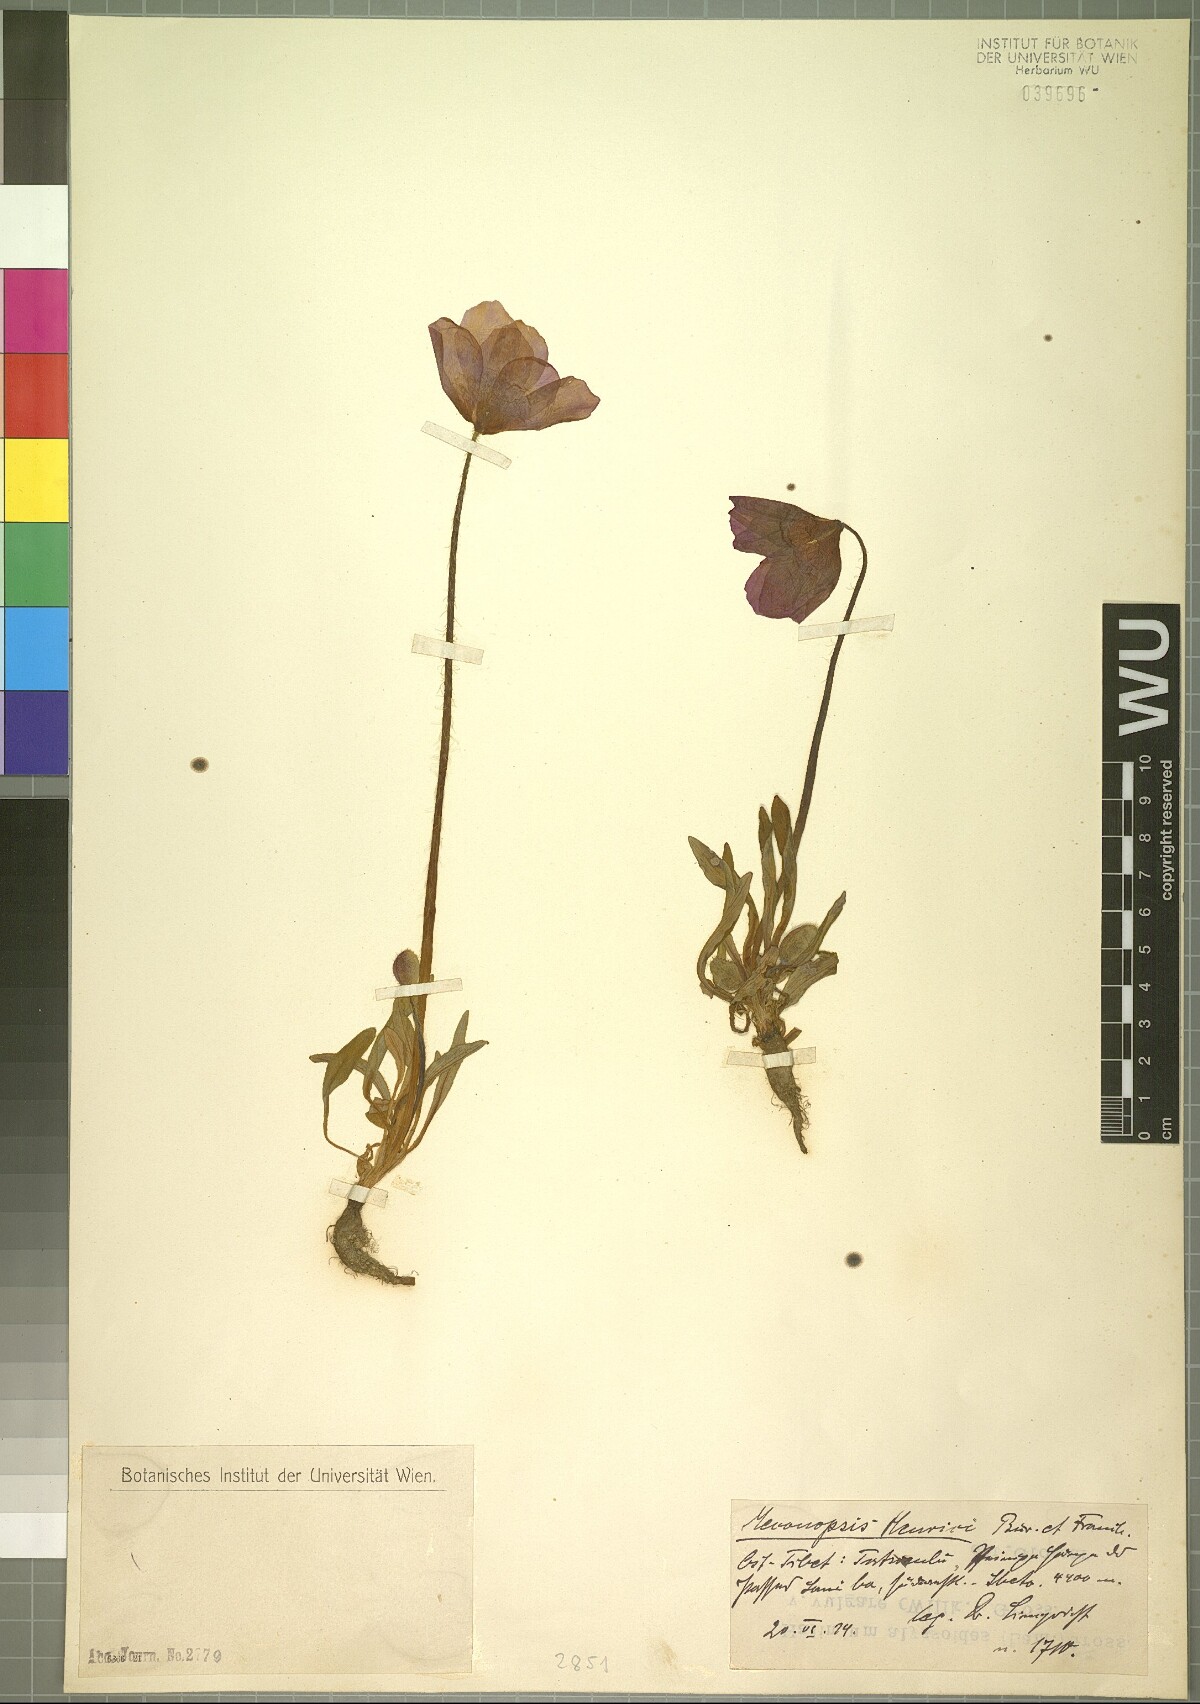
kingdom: Plantae
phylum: Tracheophyta
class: Magnoliopsida
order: Ranunculales
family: Papaveraceae
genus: Meconopsis
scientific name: Meconopsis henrici
